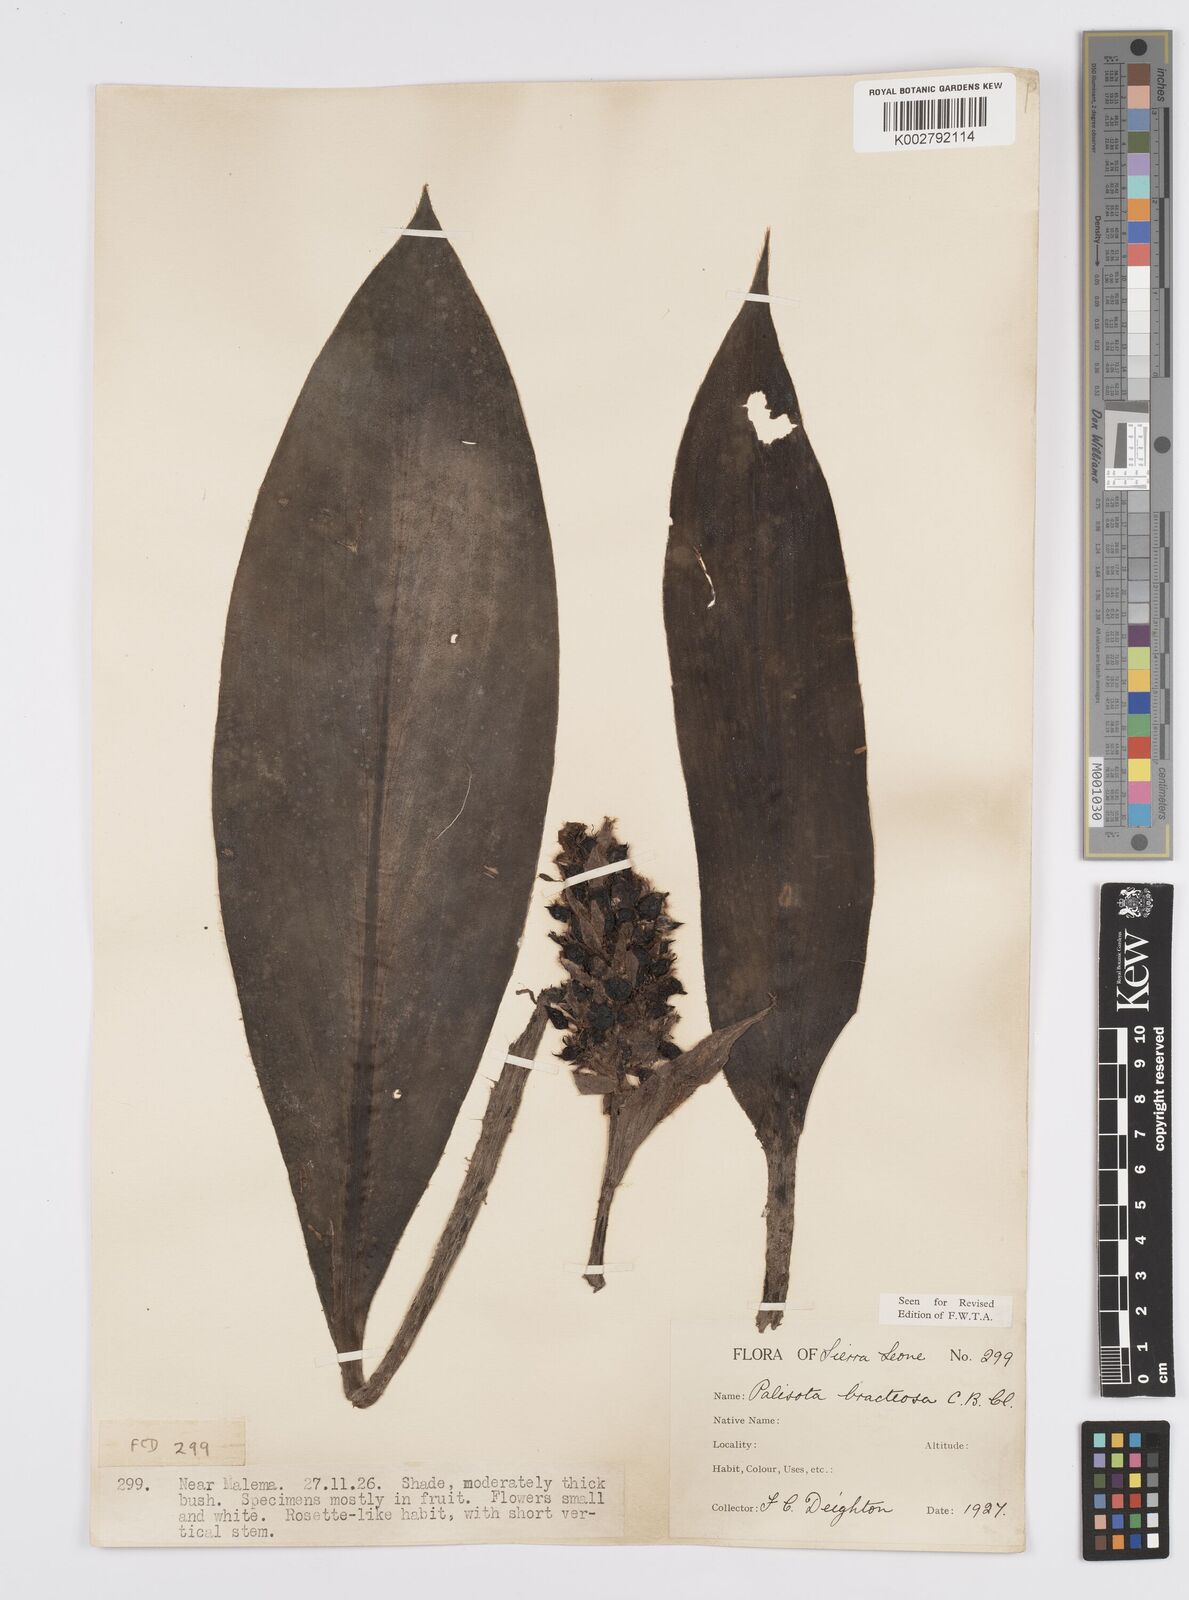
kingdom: Plantae
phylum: Tracheophyta
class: Liliopsida
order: Commelinales
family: Commelinaceae
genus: Palisota
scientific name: Palisota bracteosa
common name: Palisota
